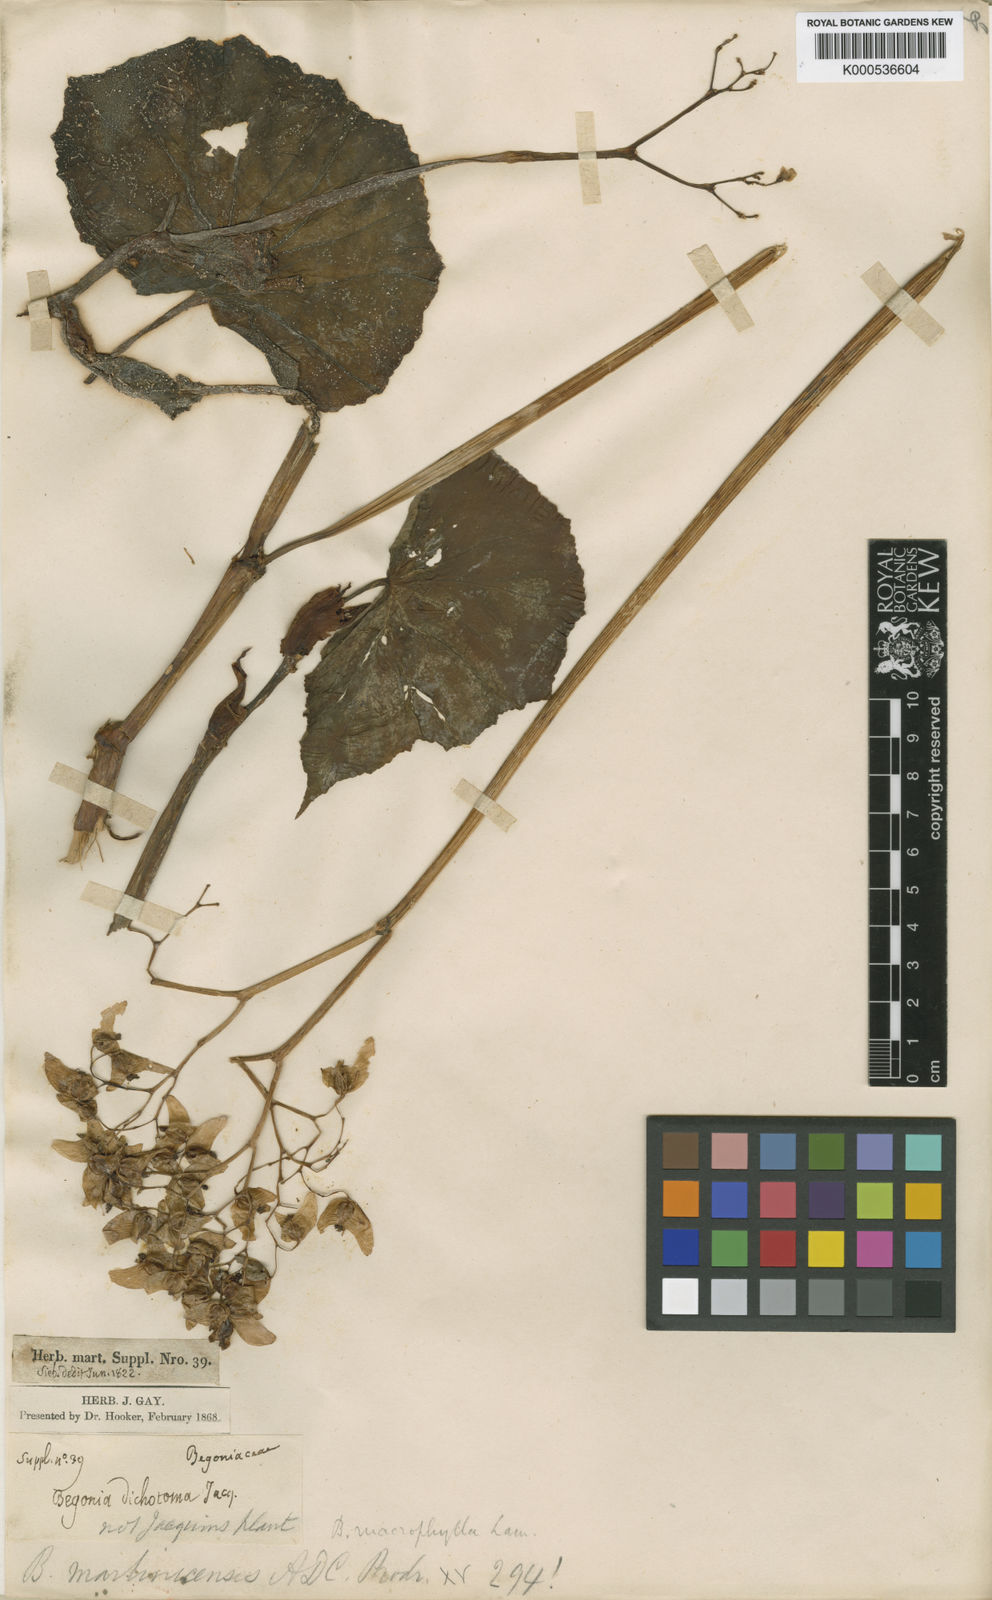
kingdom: Plantae
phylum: Tracheophyta
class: Magnoliopsida
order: Cucurbitales
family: Begoniaceae
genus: Begonia
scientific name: Begonia obliqua
